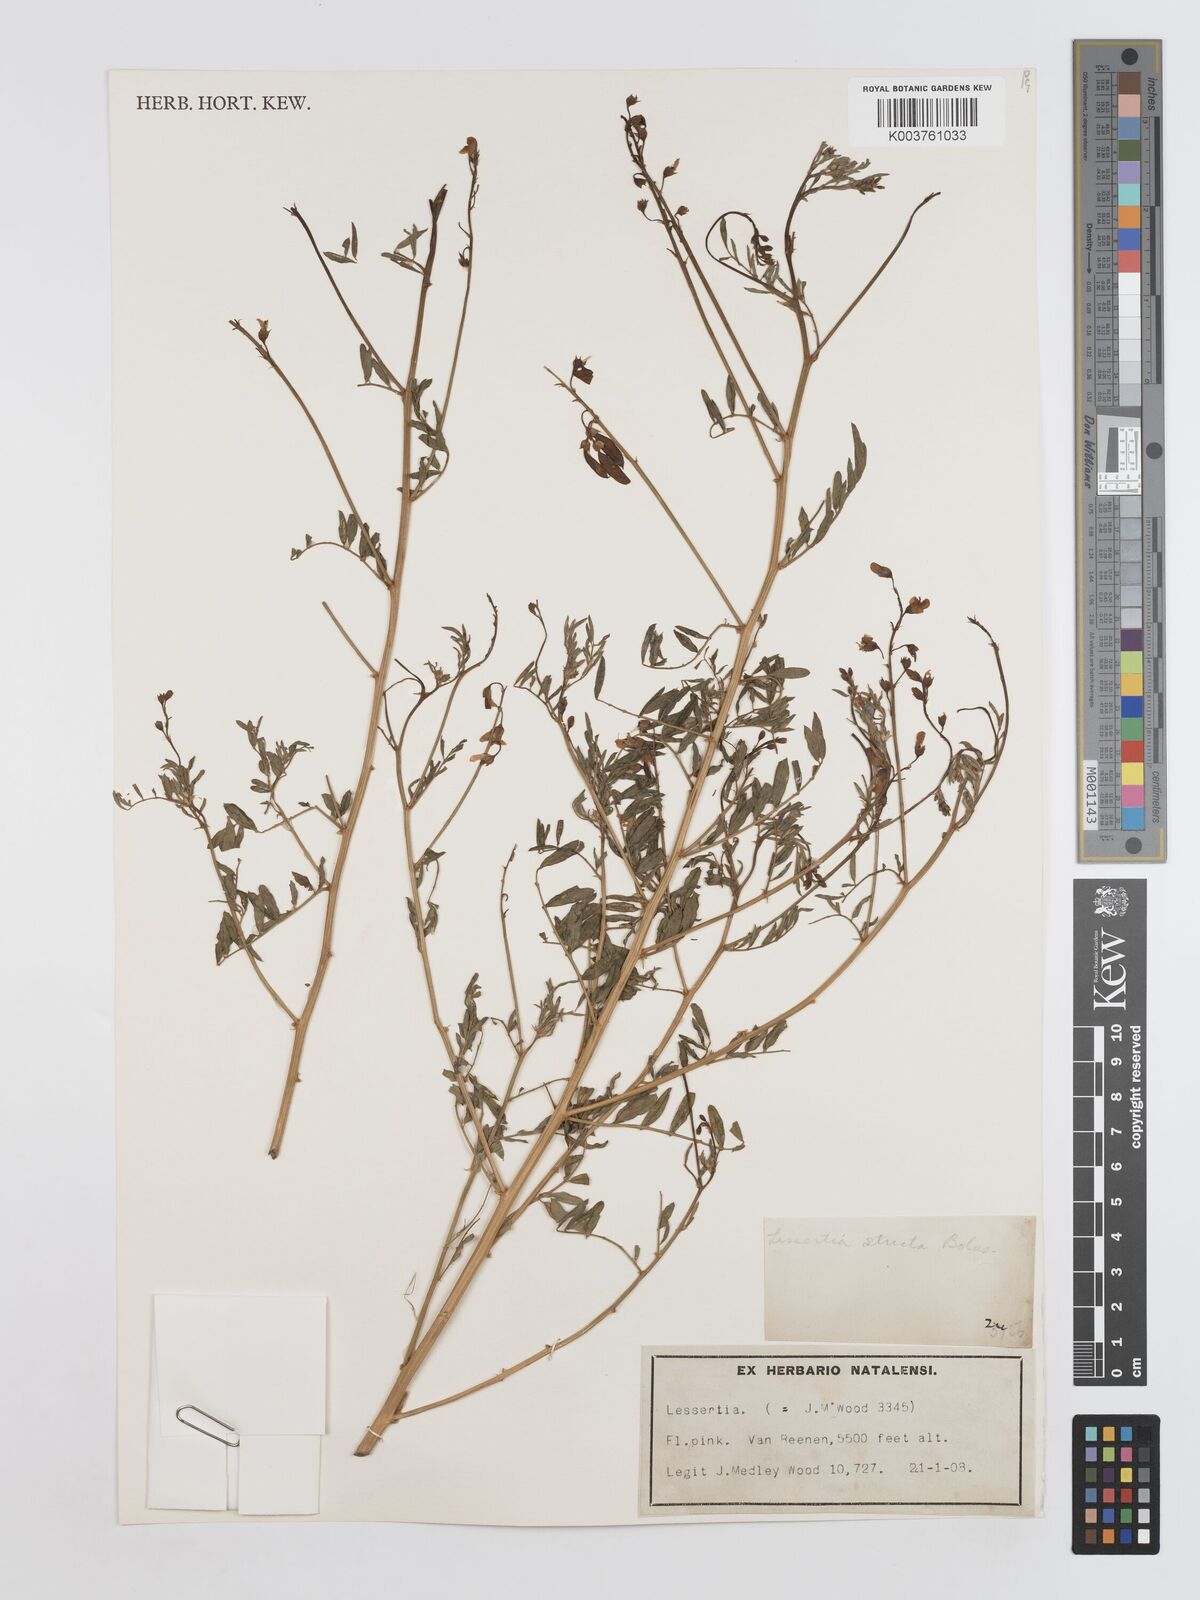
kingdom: Plantae
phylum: Tracheophyta
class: Magnoliopsida
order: Fabales
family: Fabaceae
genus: Lessertia
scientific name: Lessertia stricta
